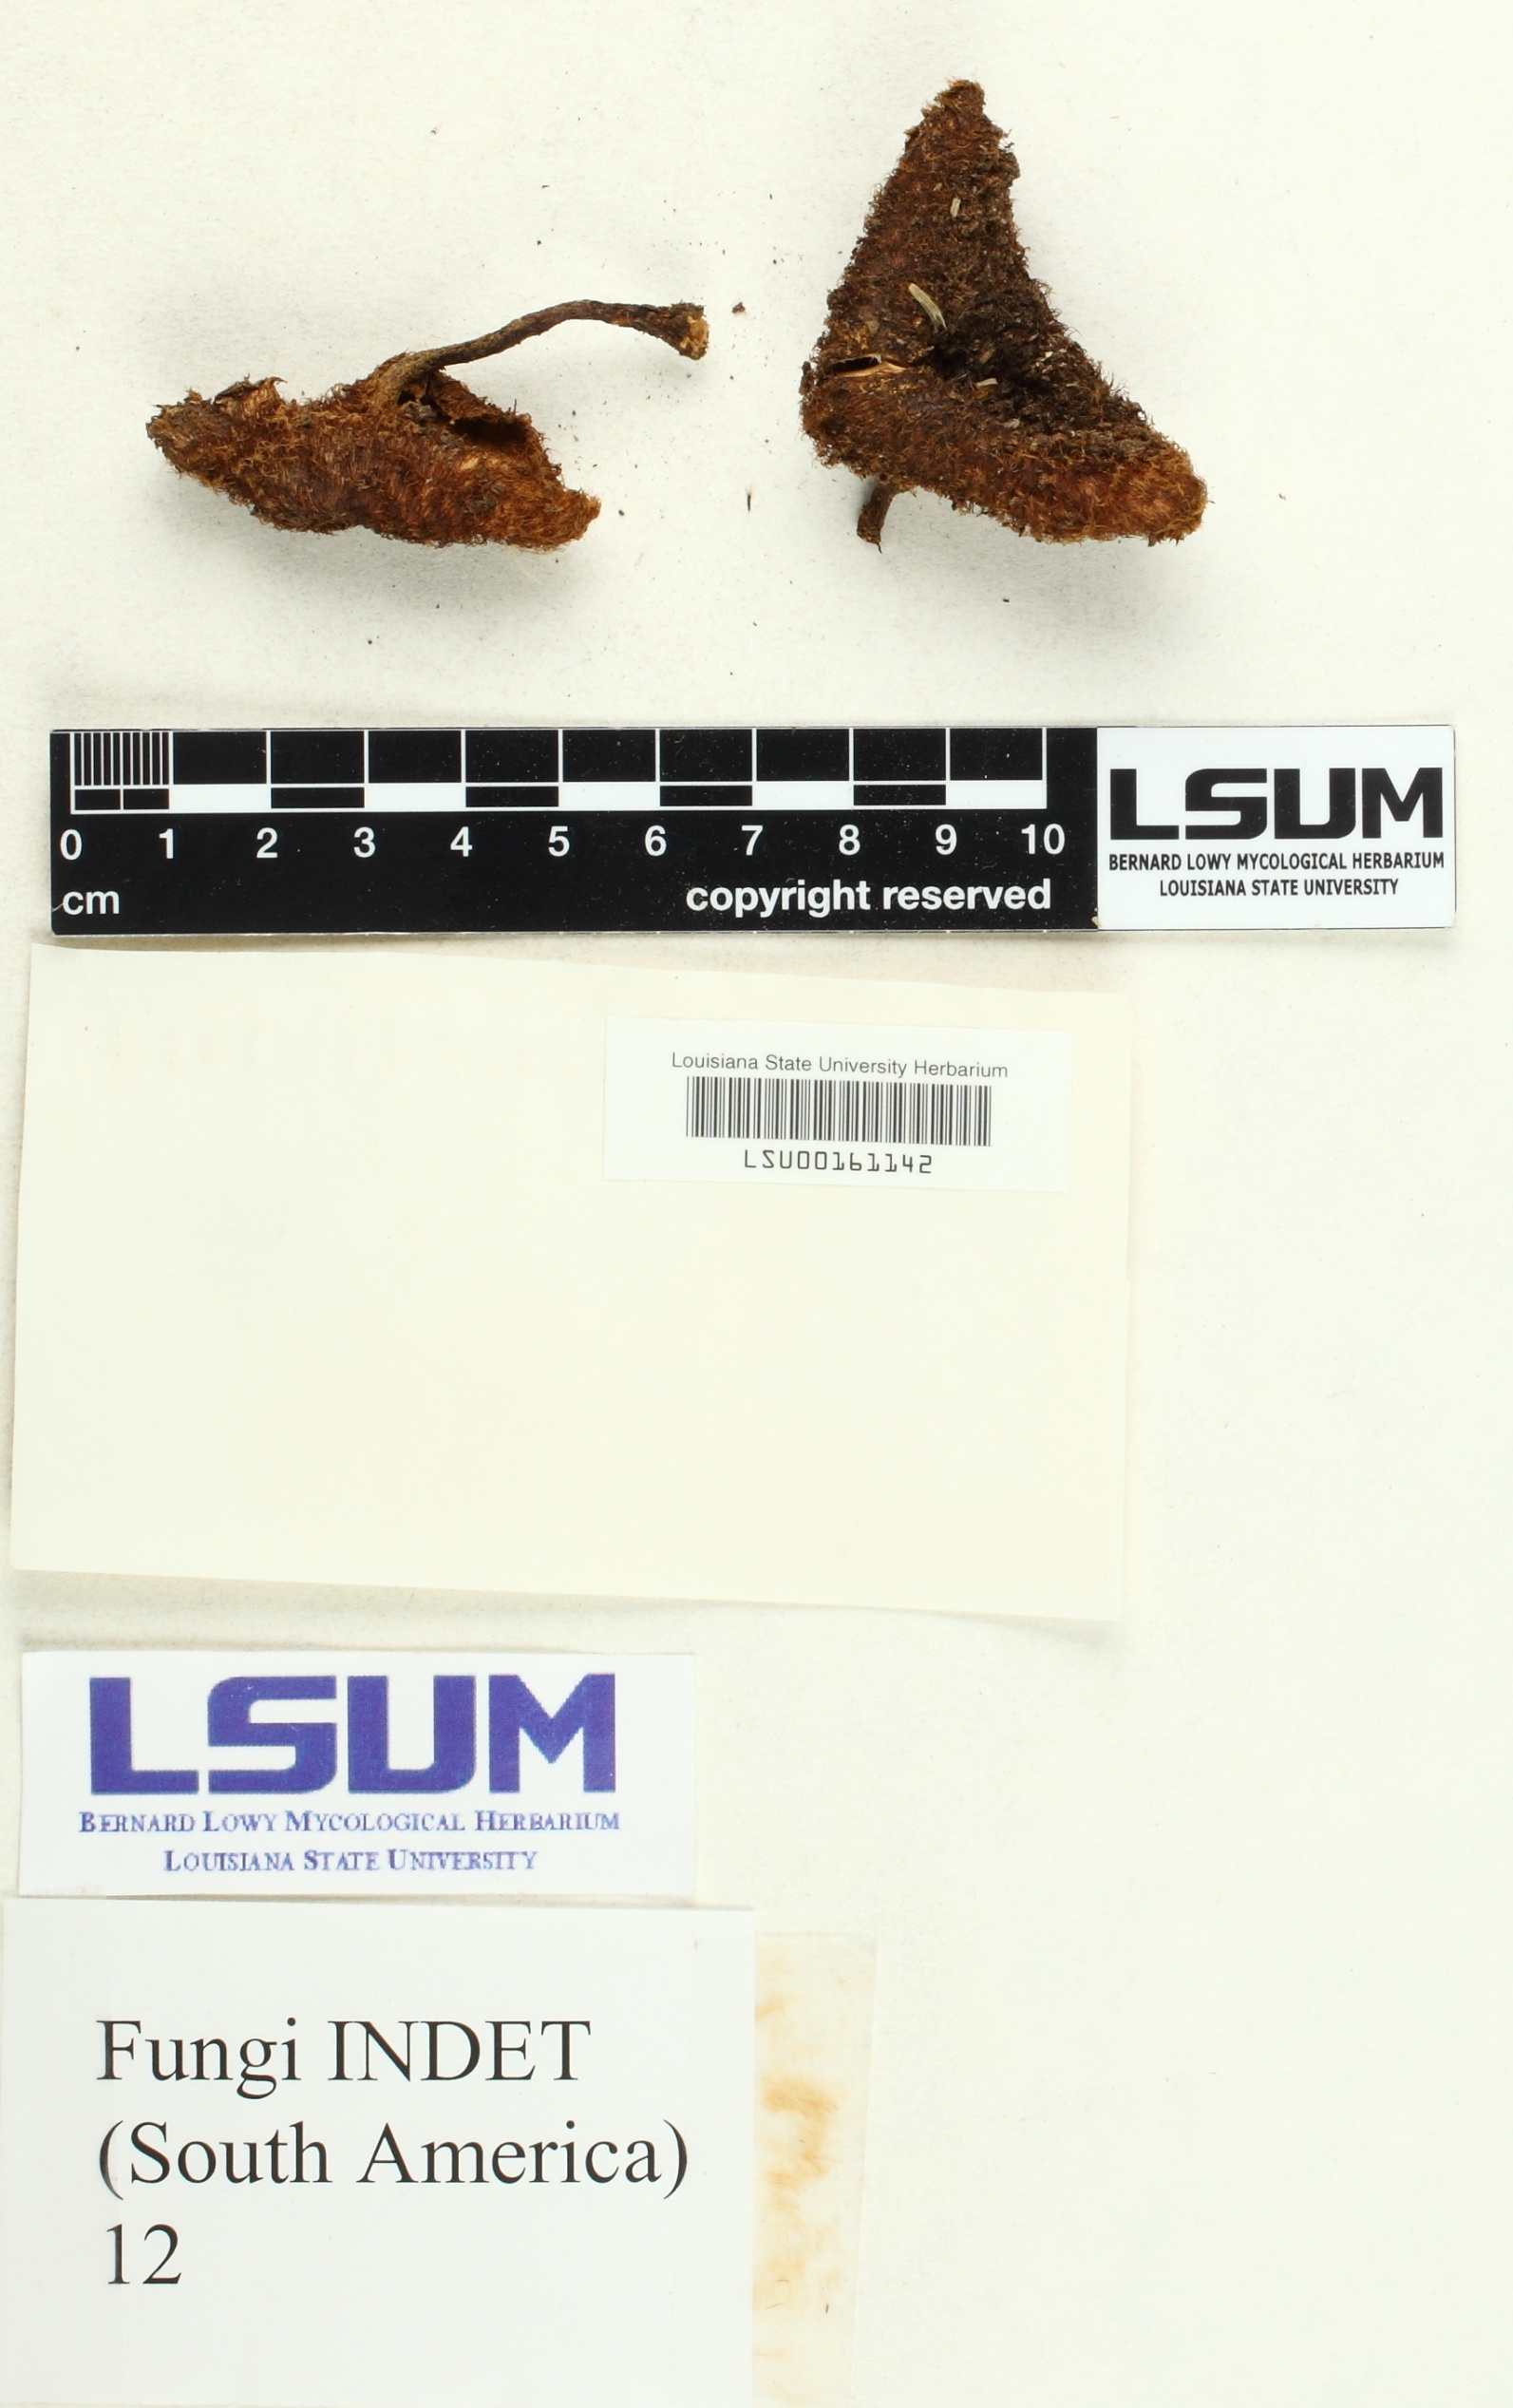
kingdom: Fungi
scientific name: Fungi
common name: Fungi
